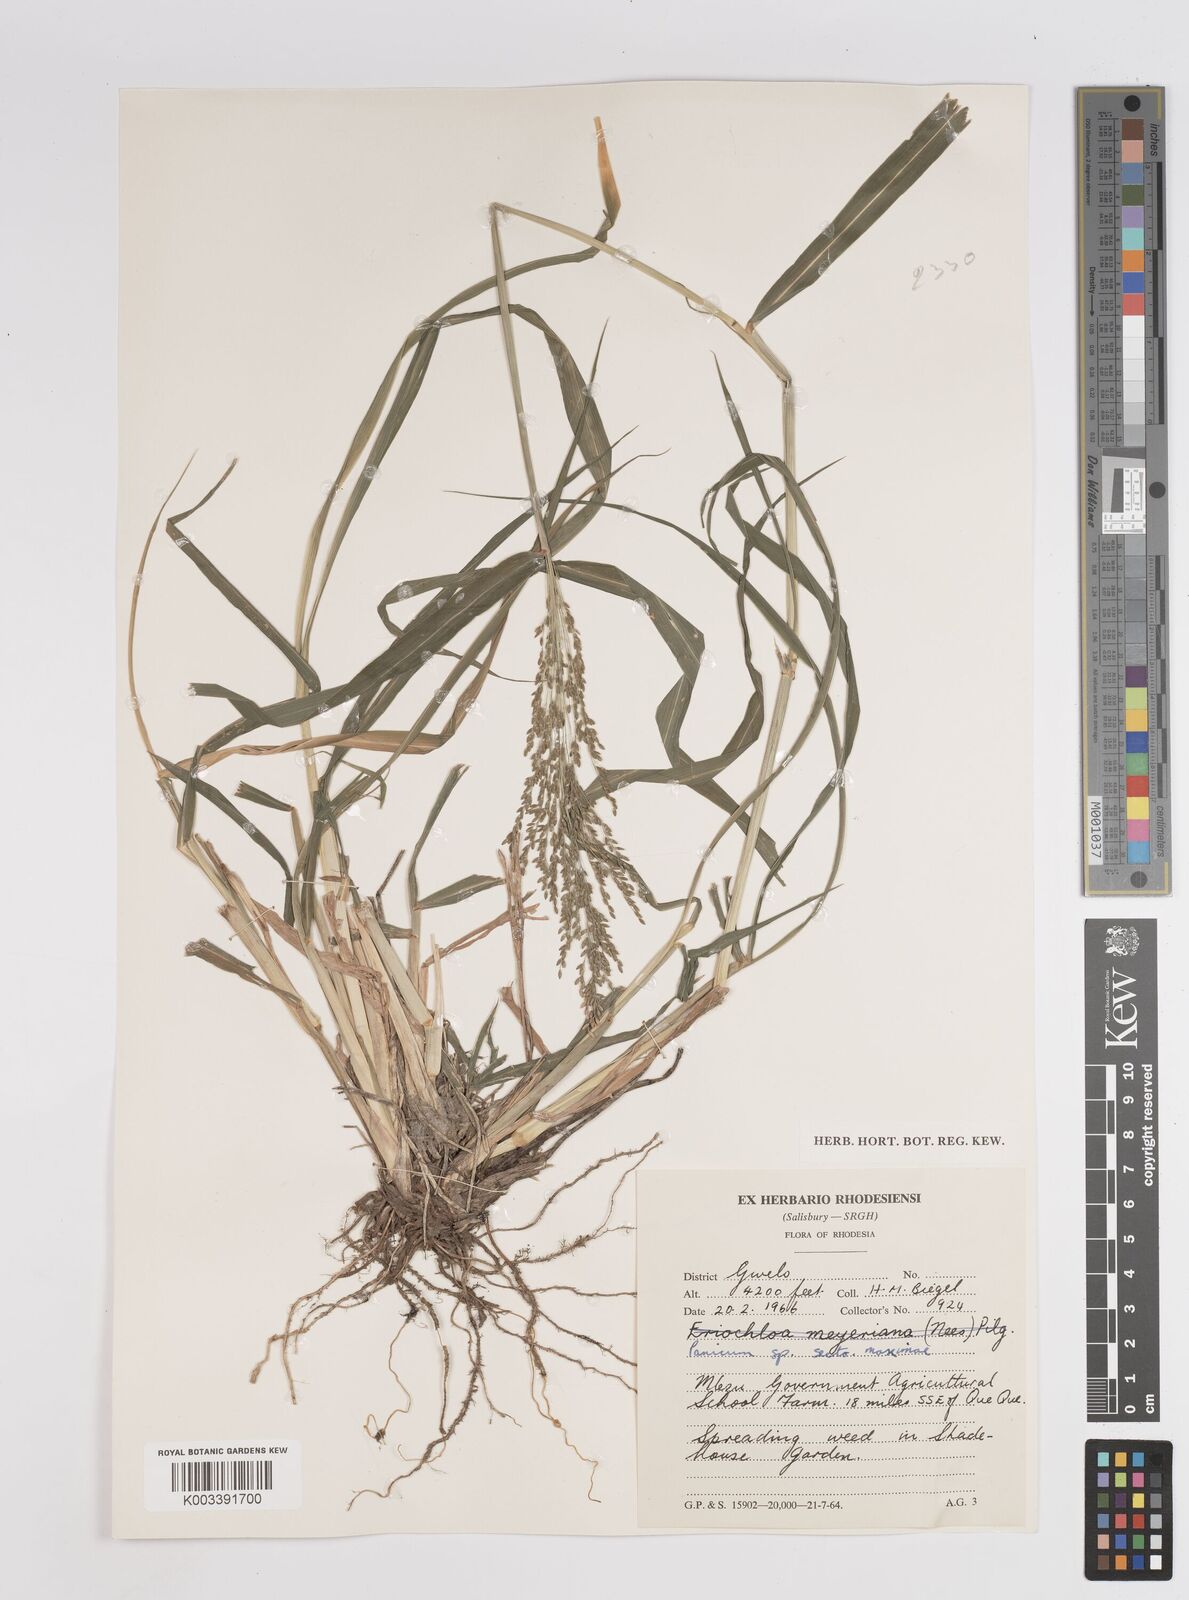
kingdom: Plantae
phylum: Tracheophyta
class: Liliopsida
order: Poales
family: Poaceae
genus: Megathyrsus
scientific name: Megathyrsus maximus
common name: Guineagrass
